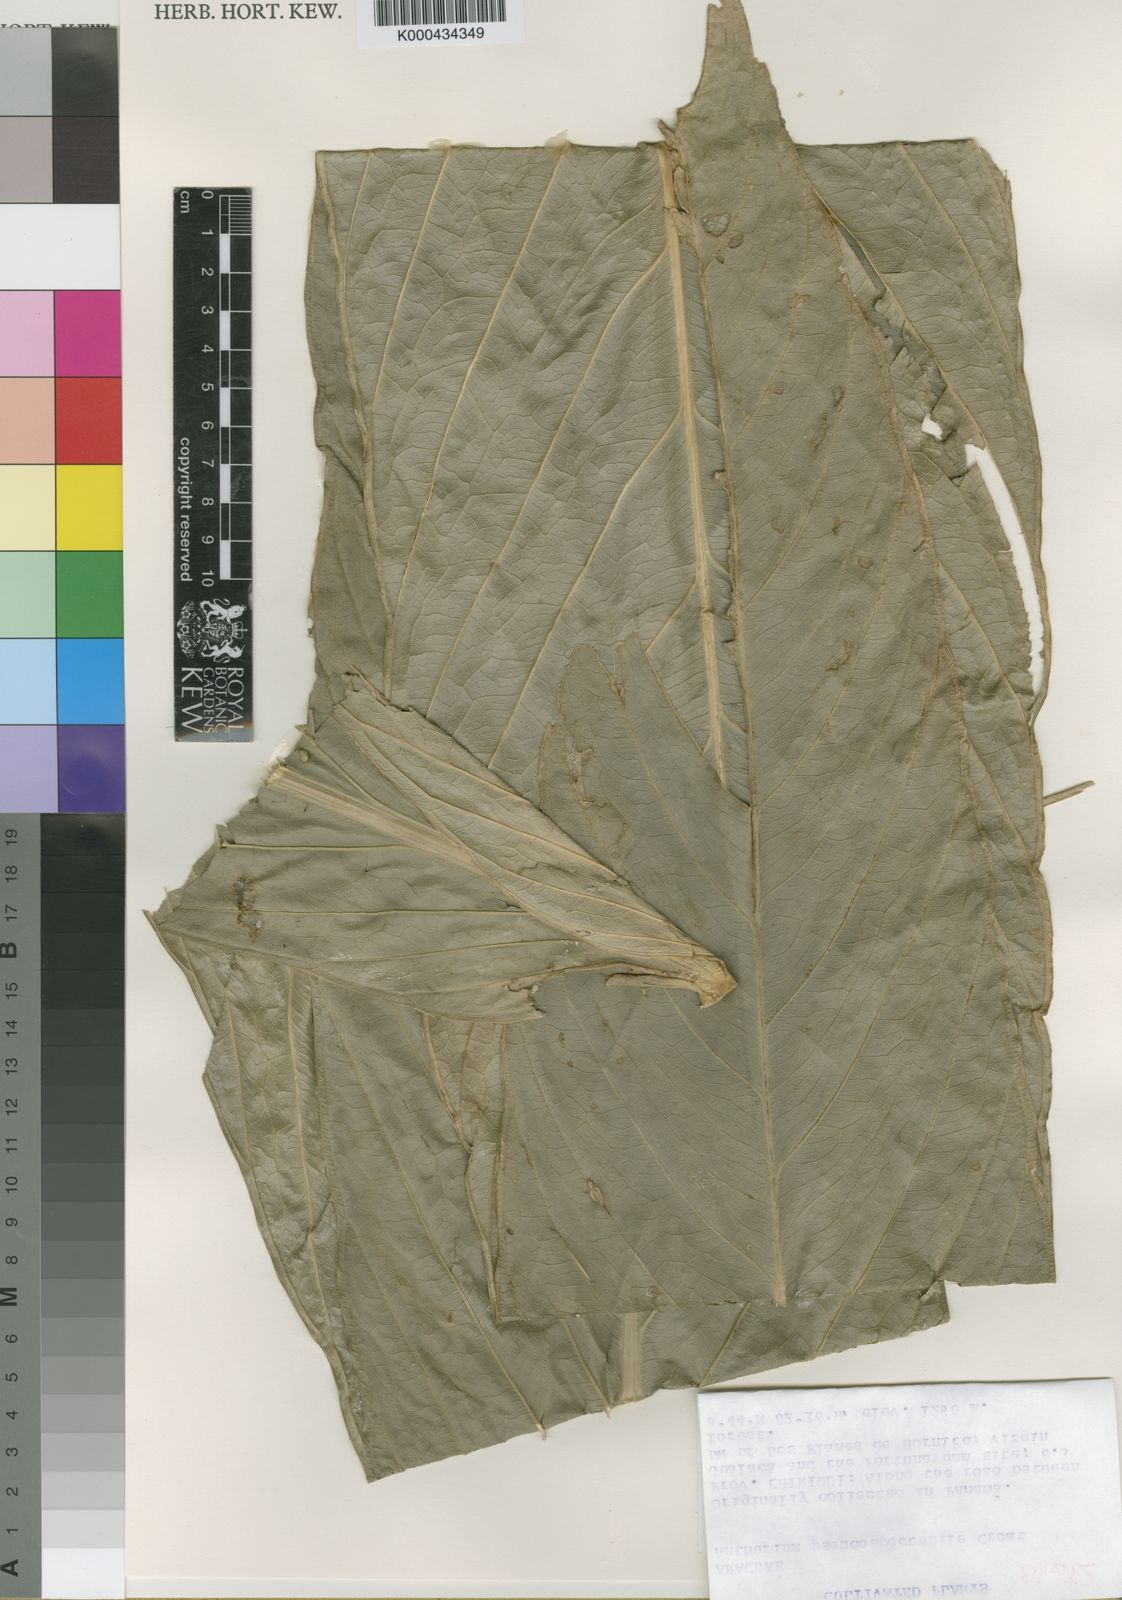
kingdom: Plantae
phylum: Tracheophyta
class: Liliopsida
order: Alismatales
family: Araceae
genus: Anthurium
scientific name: Anthurium pseudospectabile
